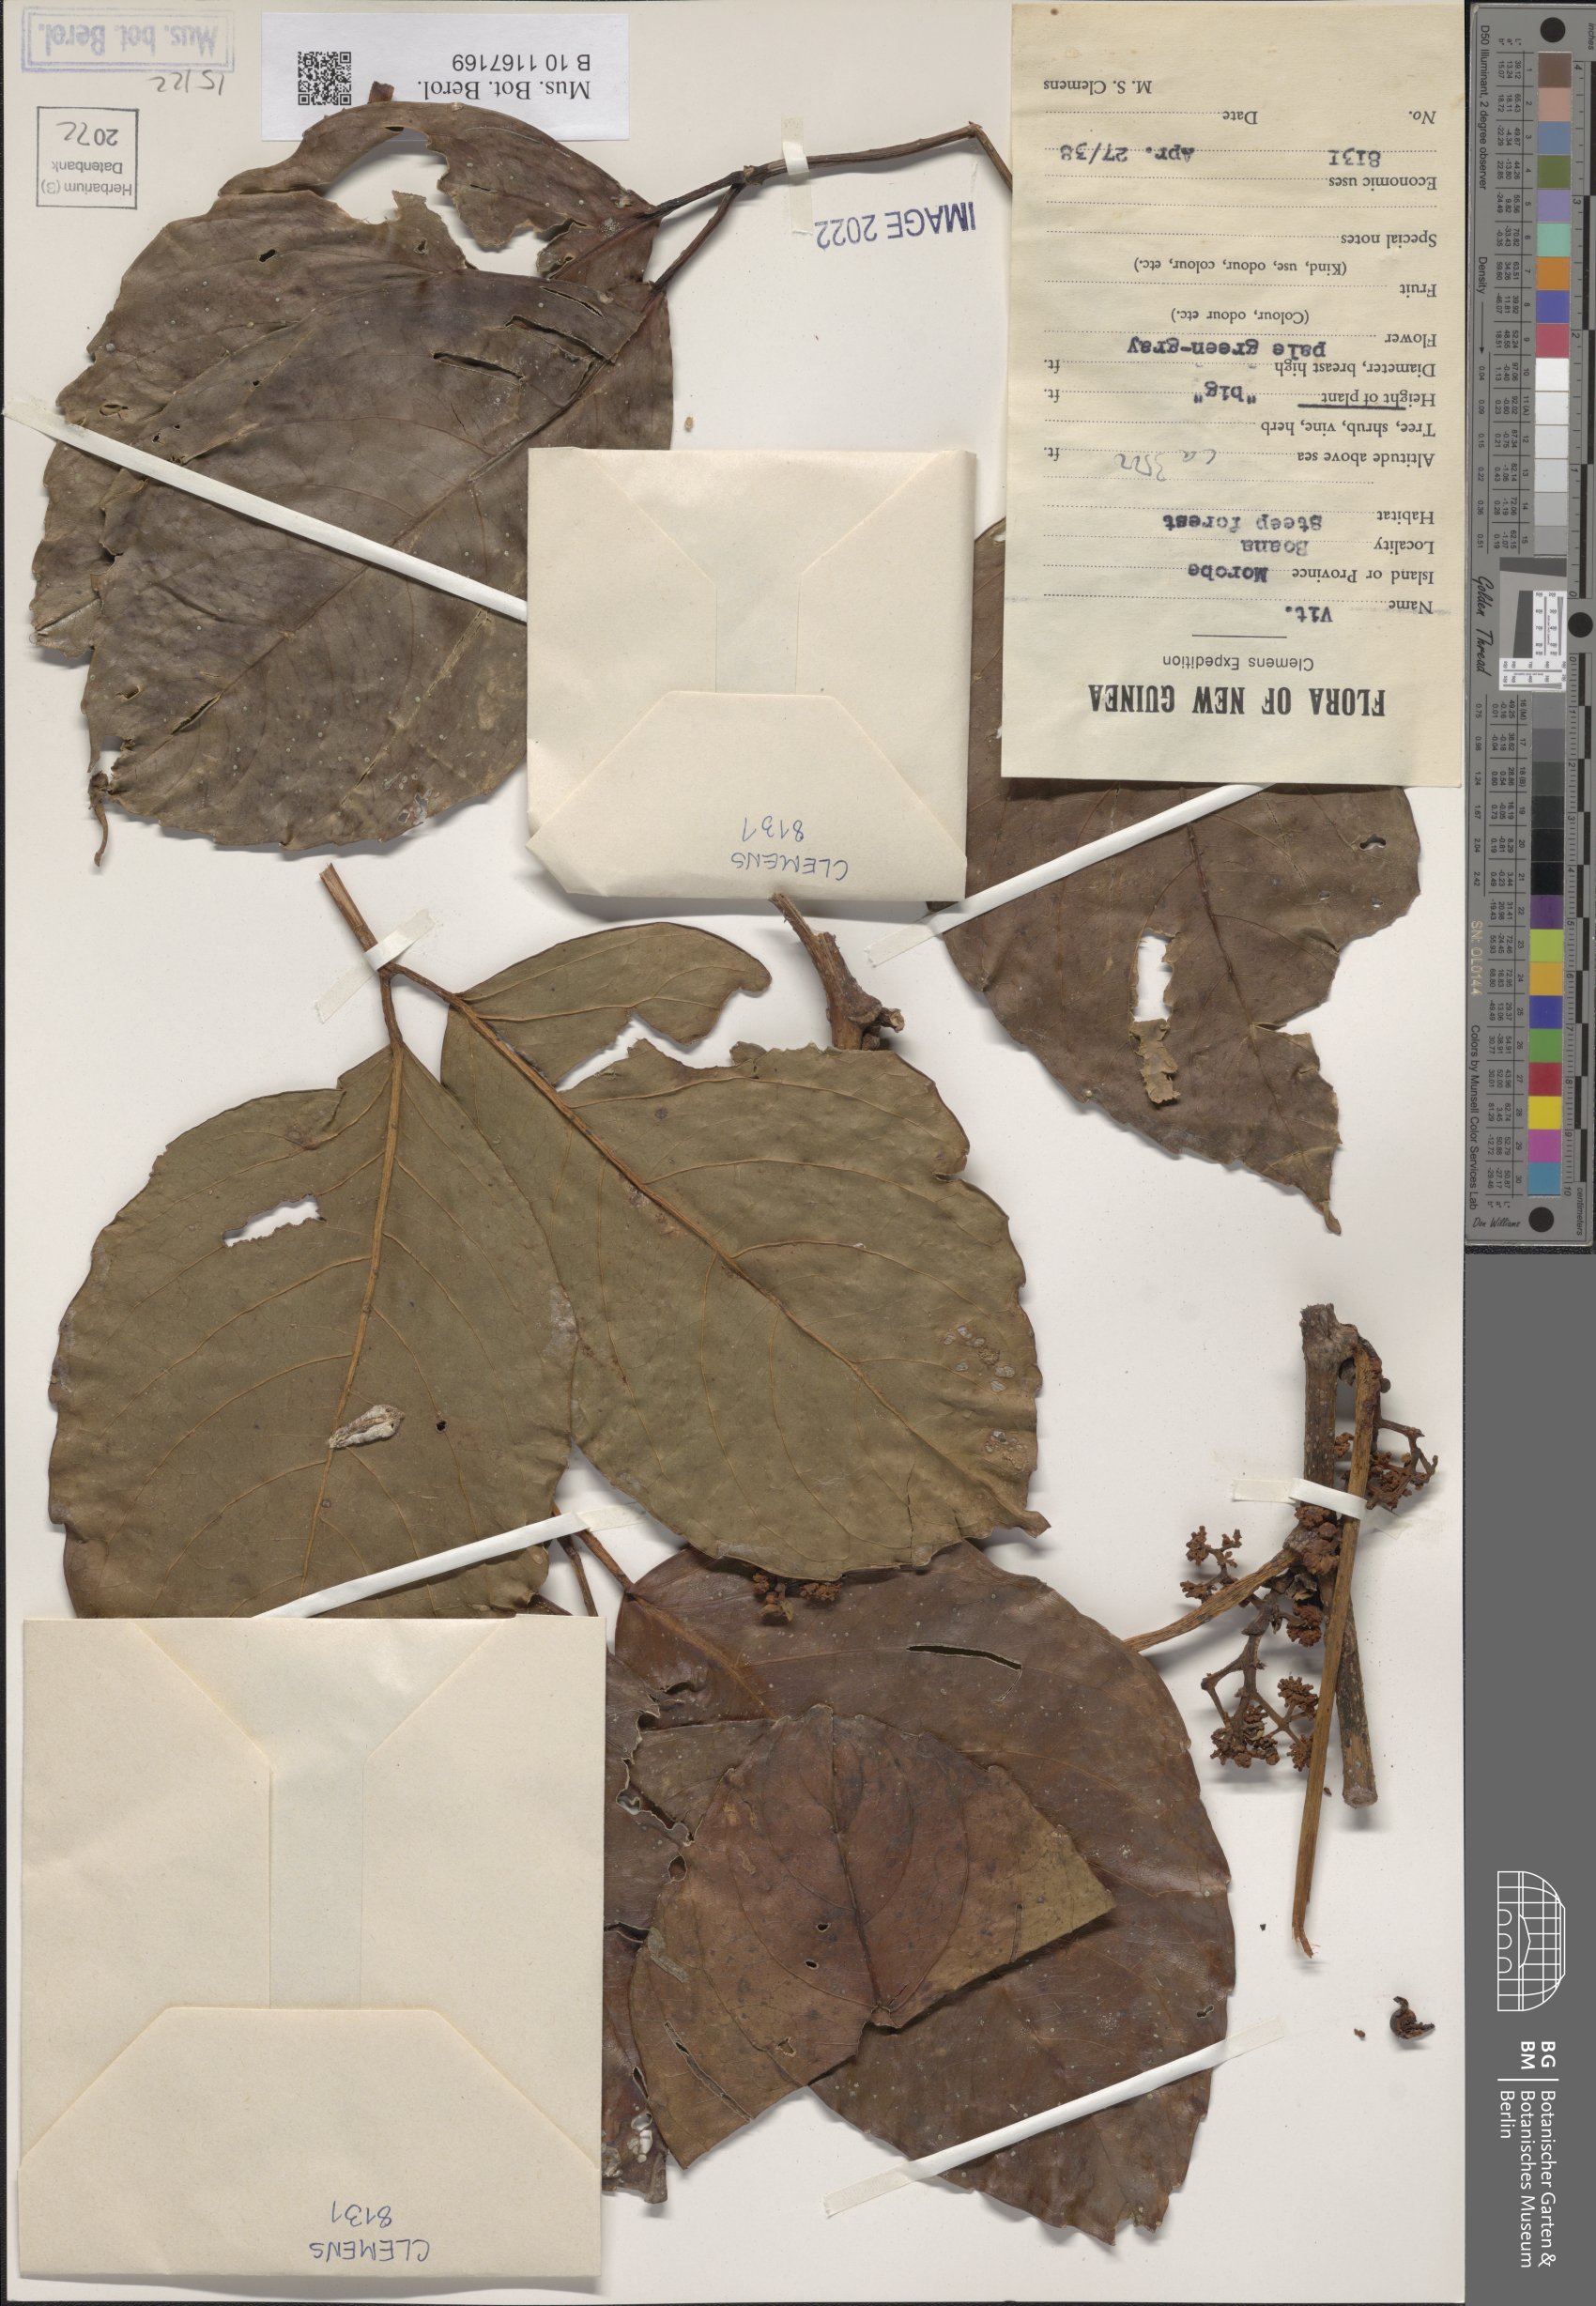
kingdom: Plantae
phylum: Tracheophyta
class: Magnoliopsida
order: Vitales
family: Vitaceae
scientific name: Vitaceae
